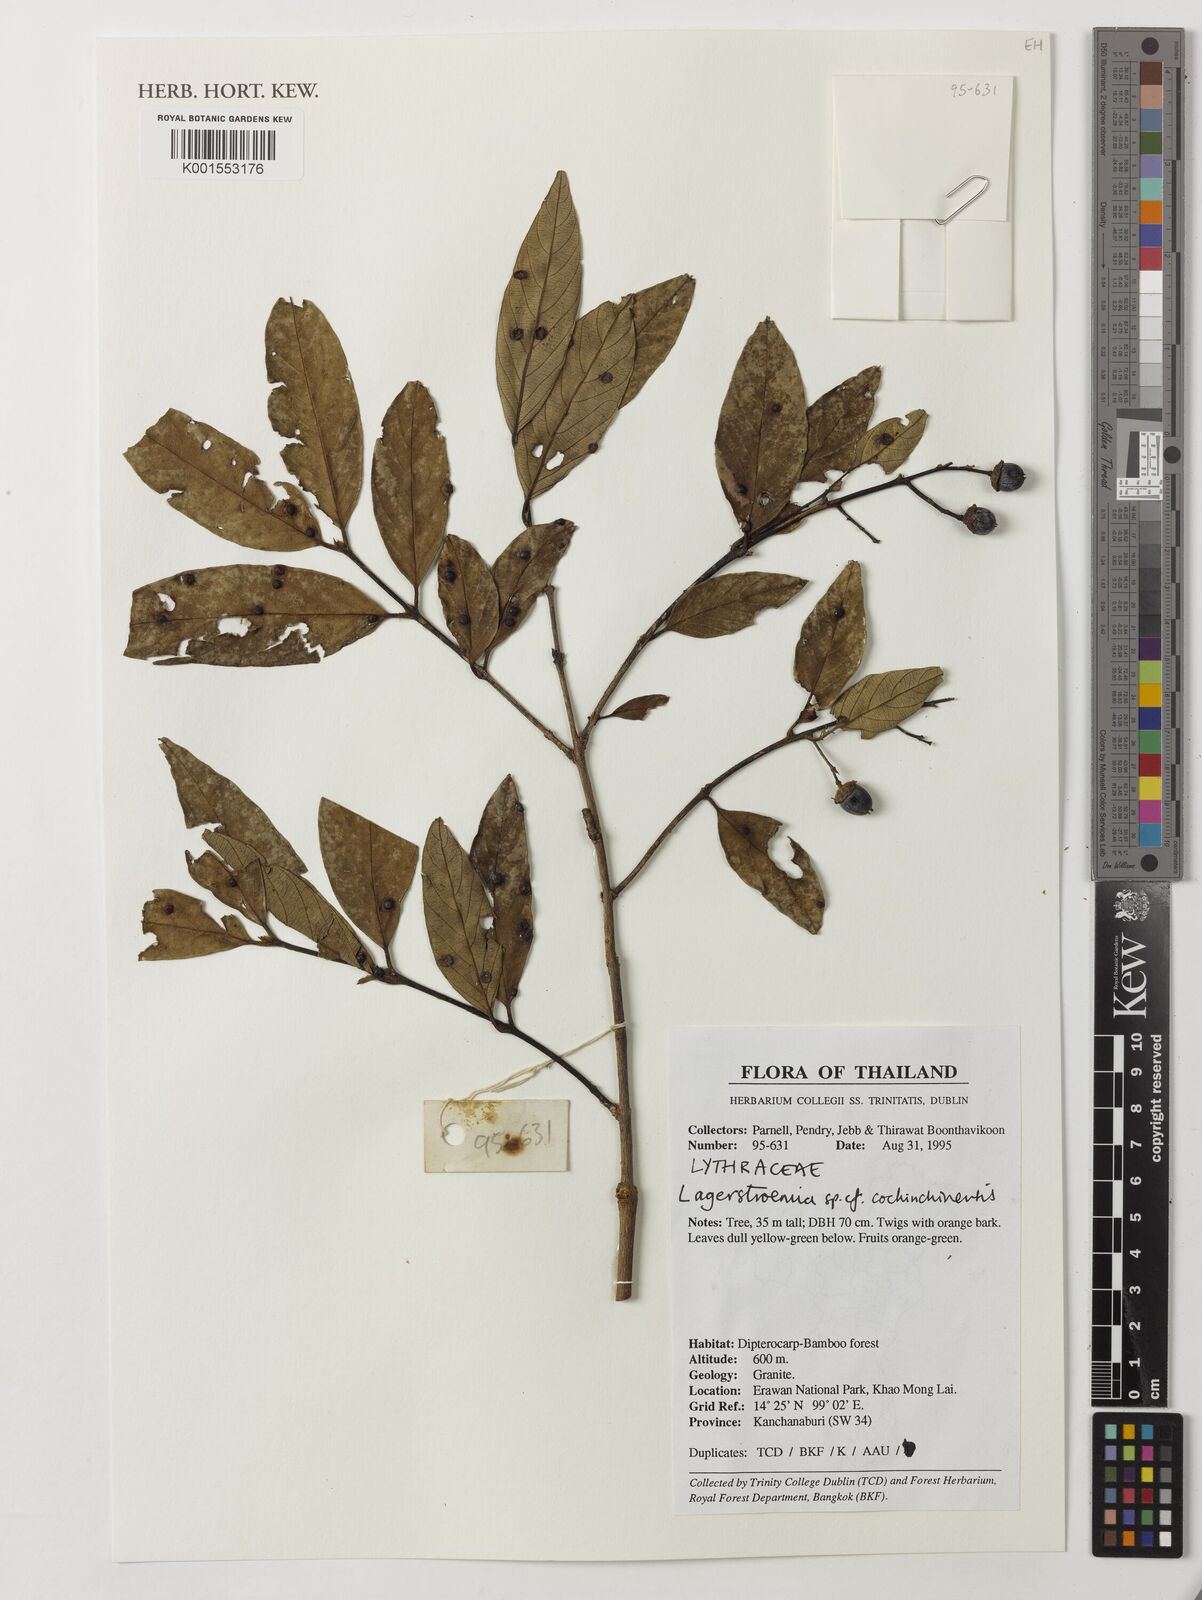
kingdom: Plantae
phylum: Tracheophyta
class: Magnoliopsida
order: Myrtales
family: Lythraceae
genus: Lagerstroemia
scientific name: Lagerstroemia cochinchinensis
